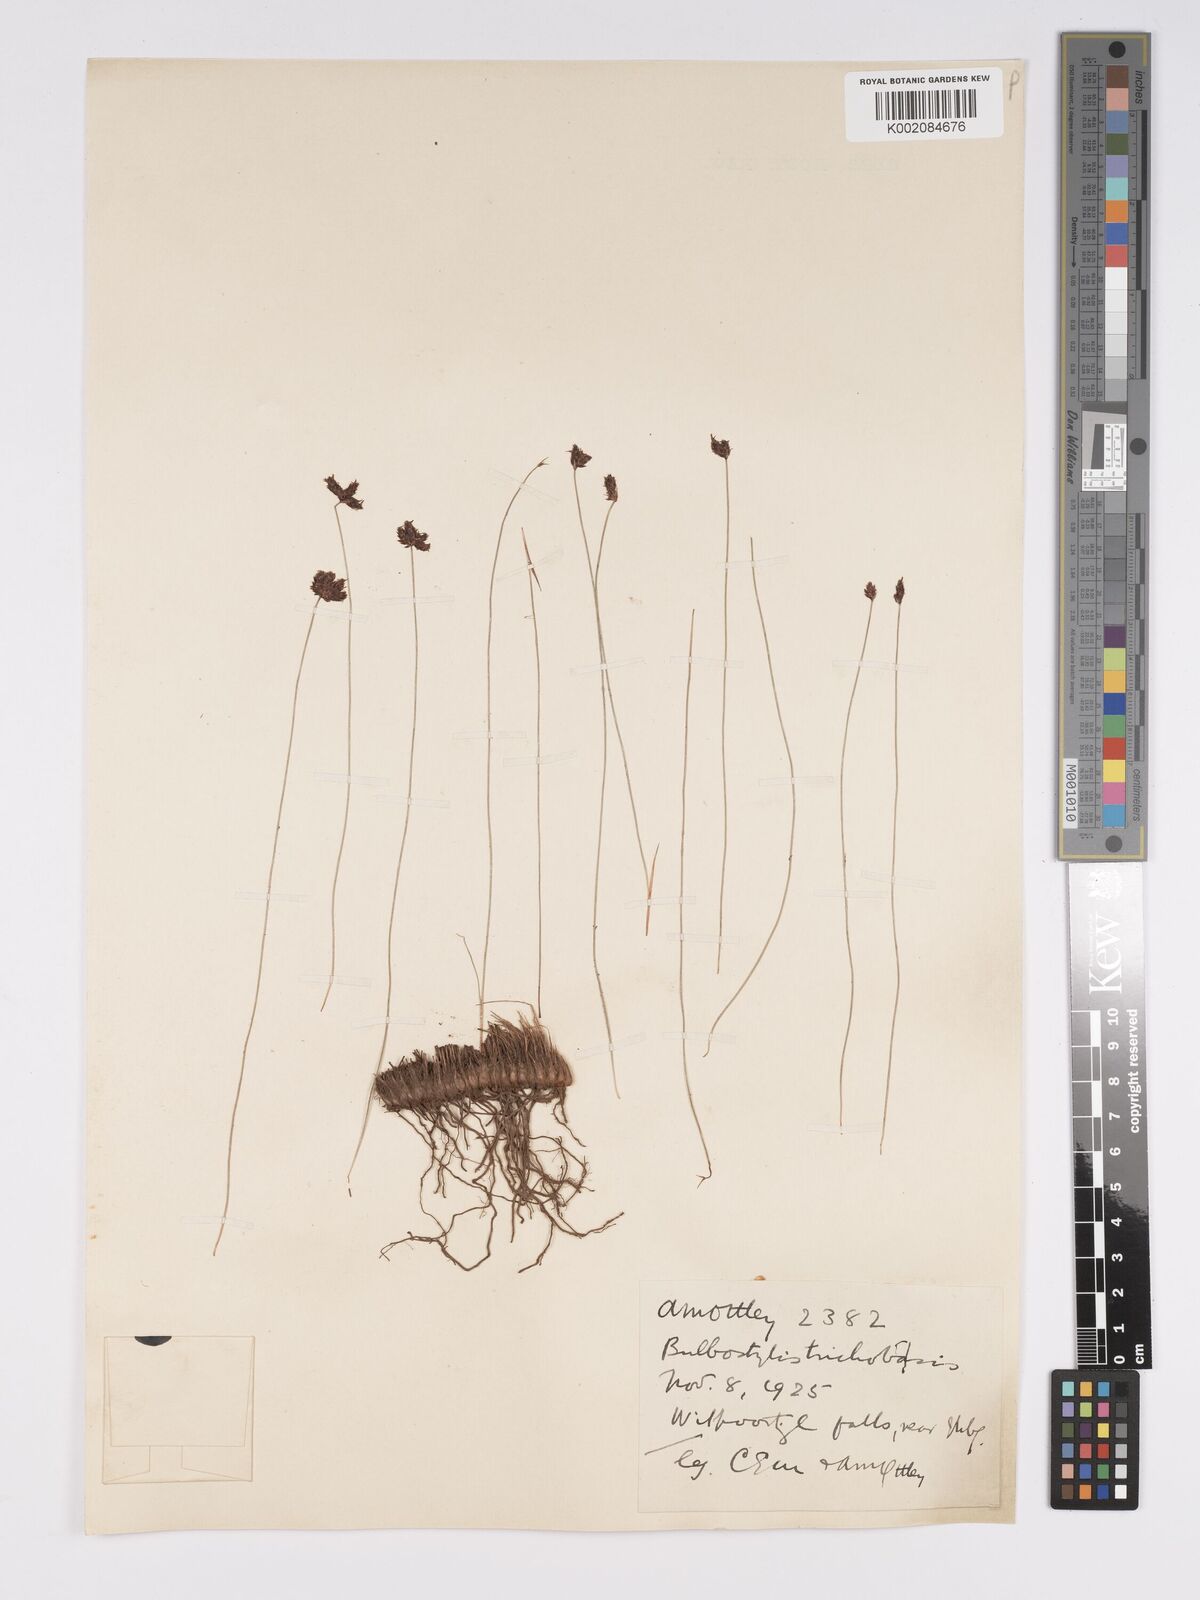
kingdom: Plantae
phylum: Tracheophyta
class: Liliopsida
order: Poales
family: Cyperaceae
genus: Bulbostylis
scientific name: Bulbostylis oritrephes
